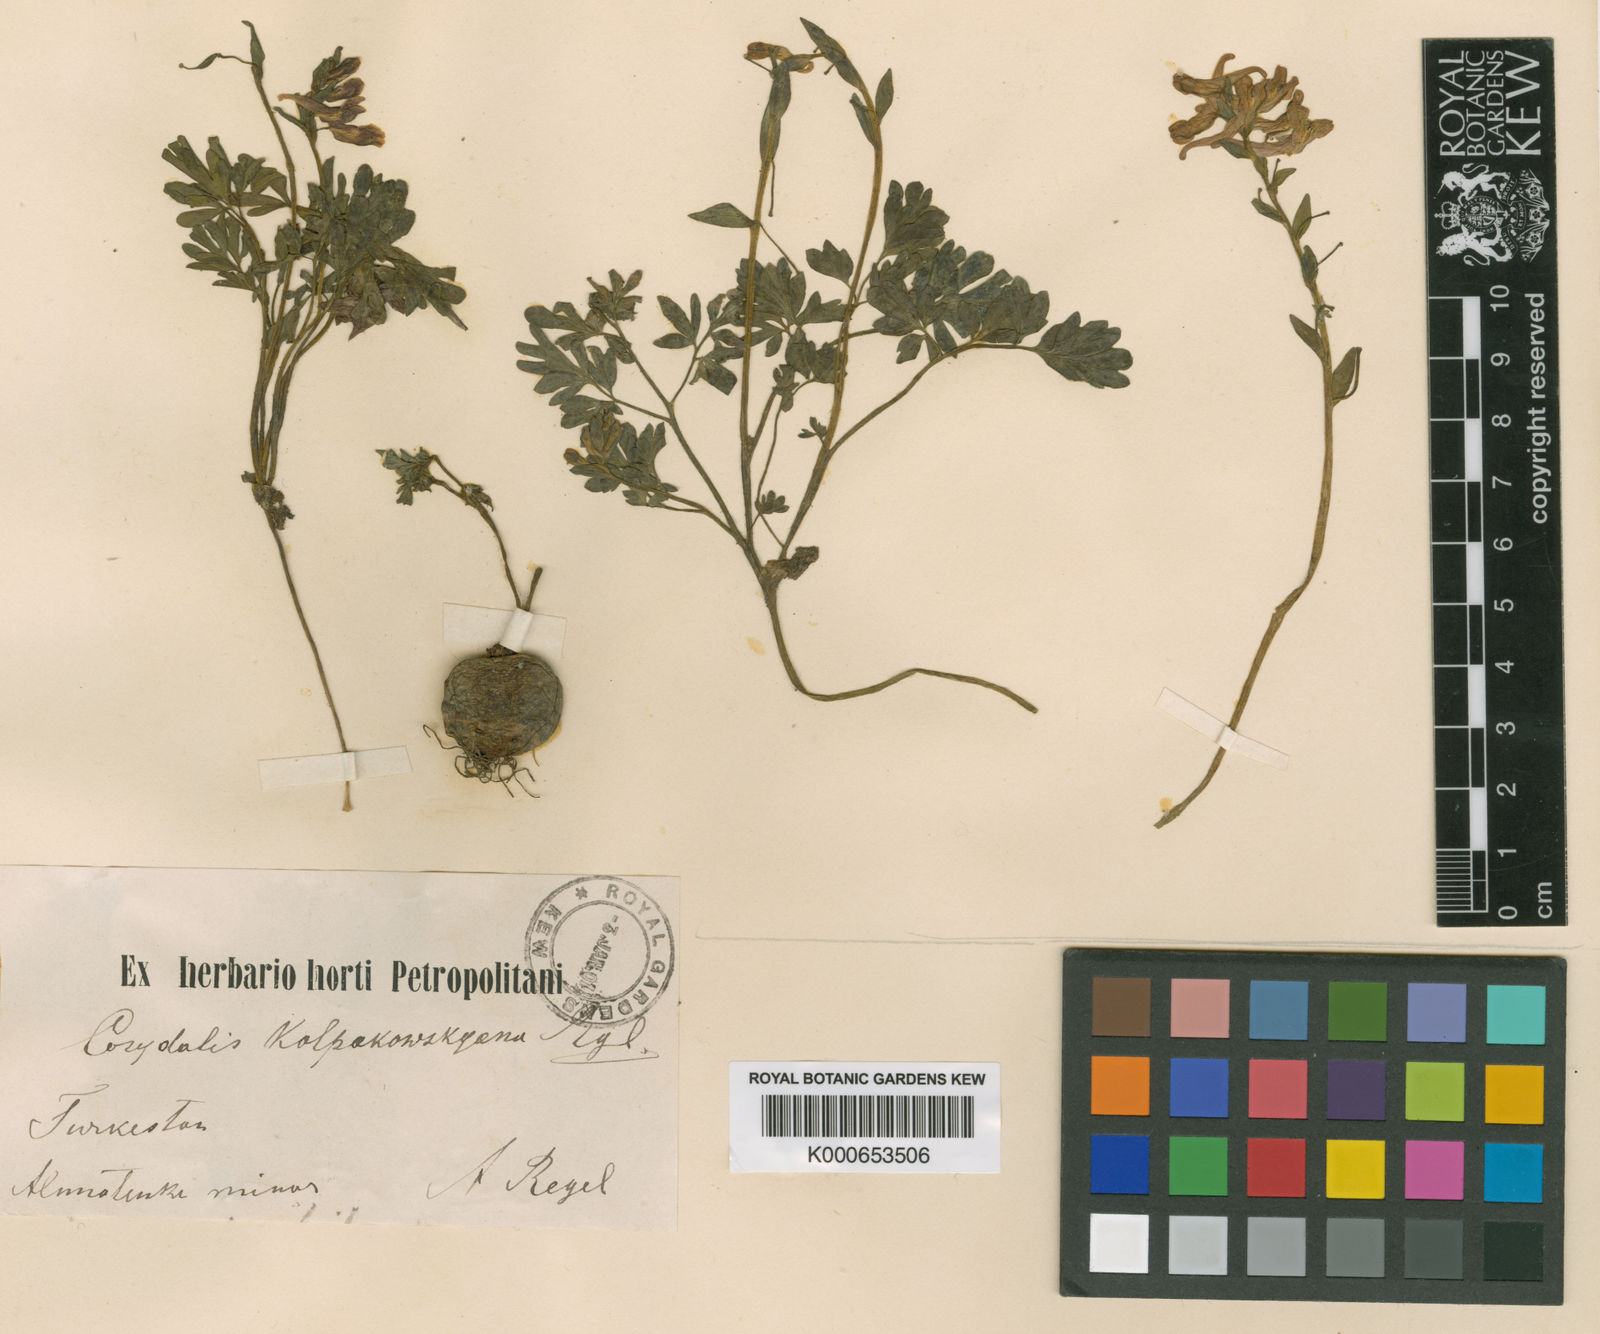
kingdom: Plantae
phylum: Tracheophyta
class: Magnoliopsida
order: Ranunculales
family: Papaveraceae
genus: Corydalis
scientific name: Corydalis glaucescens
